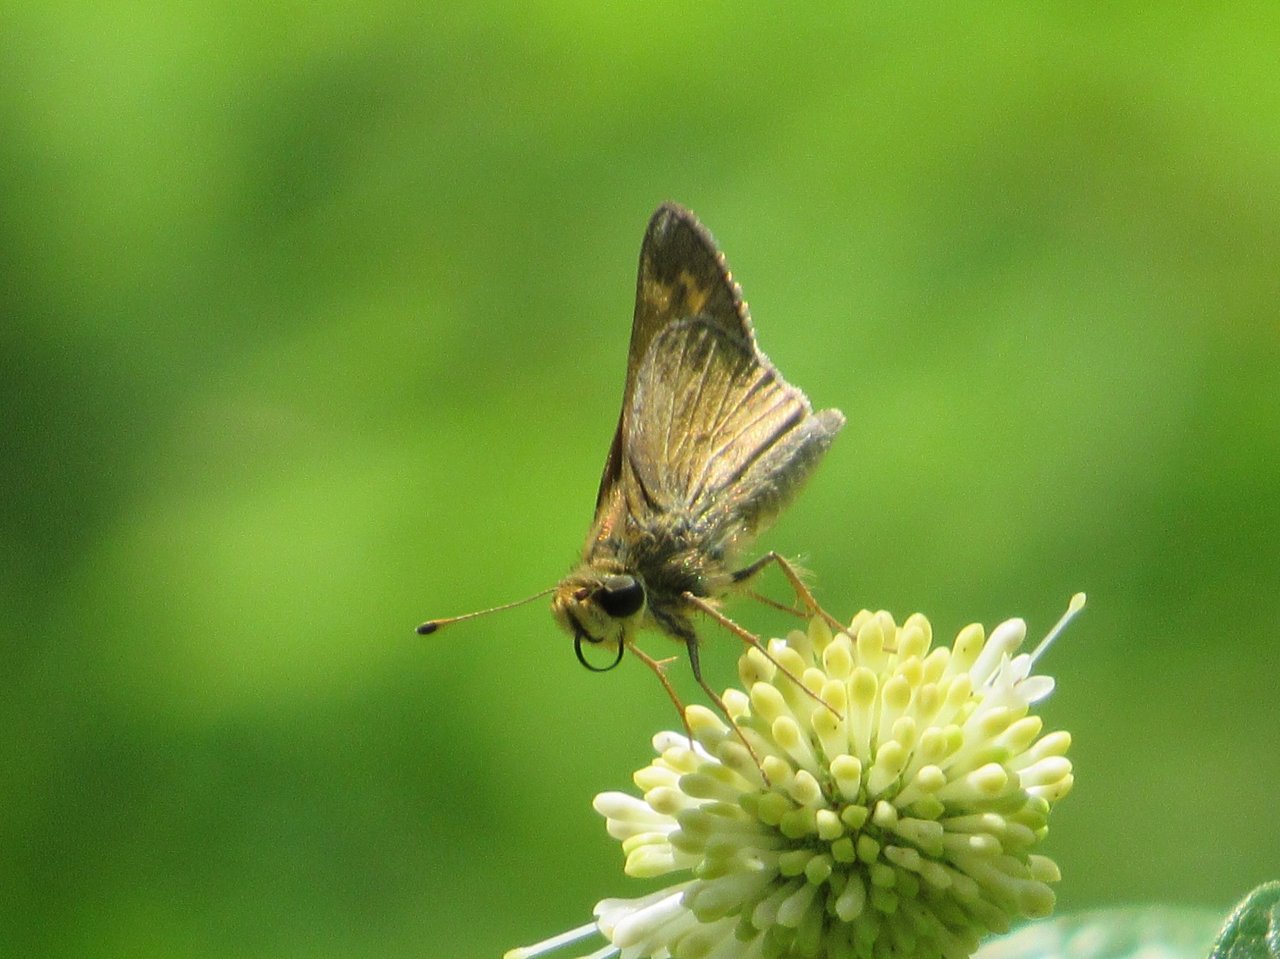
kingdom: Animalia
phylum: Arthropoda
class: Insecta
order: Lepidoptera
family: Hesperiidae
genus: Atalopedes
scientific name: Atalopedes campestris
